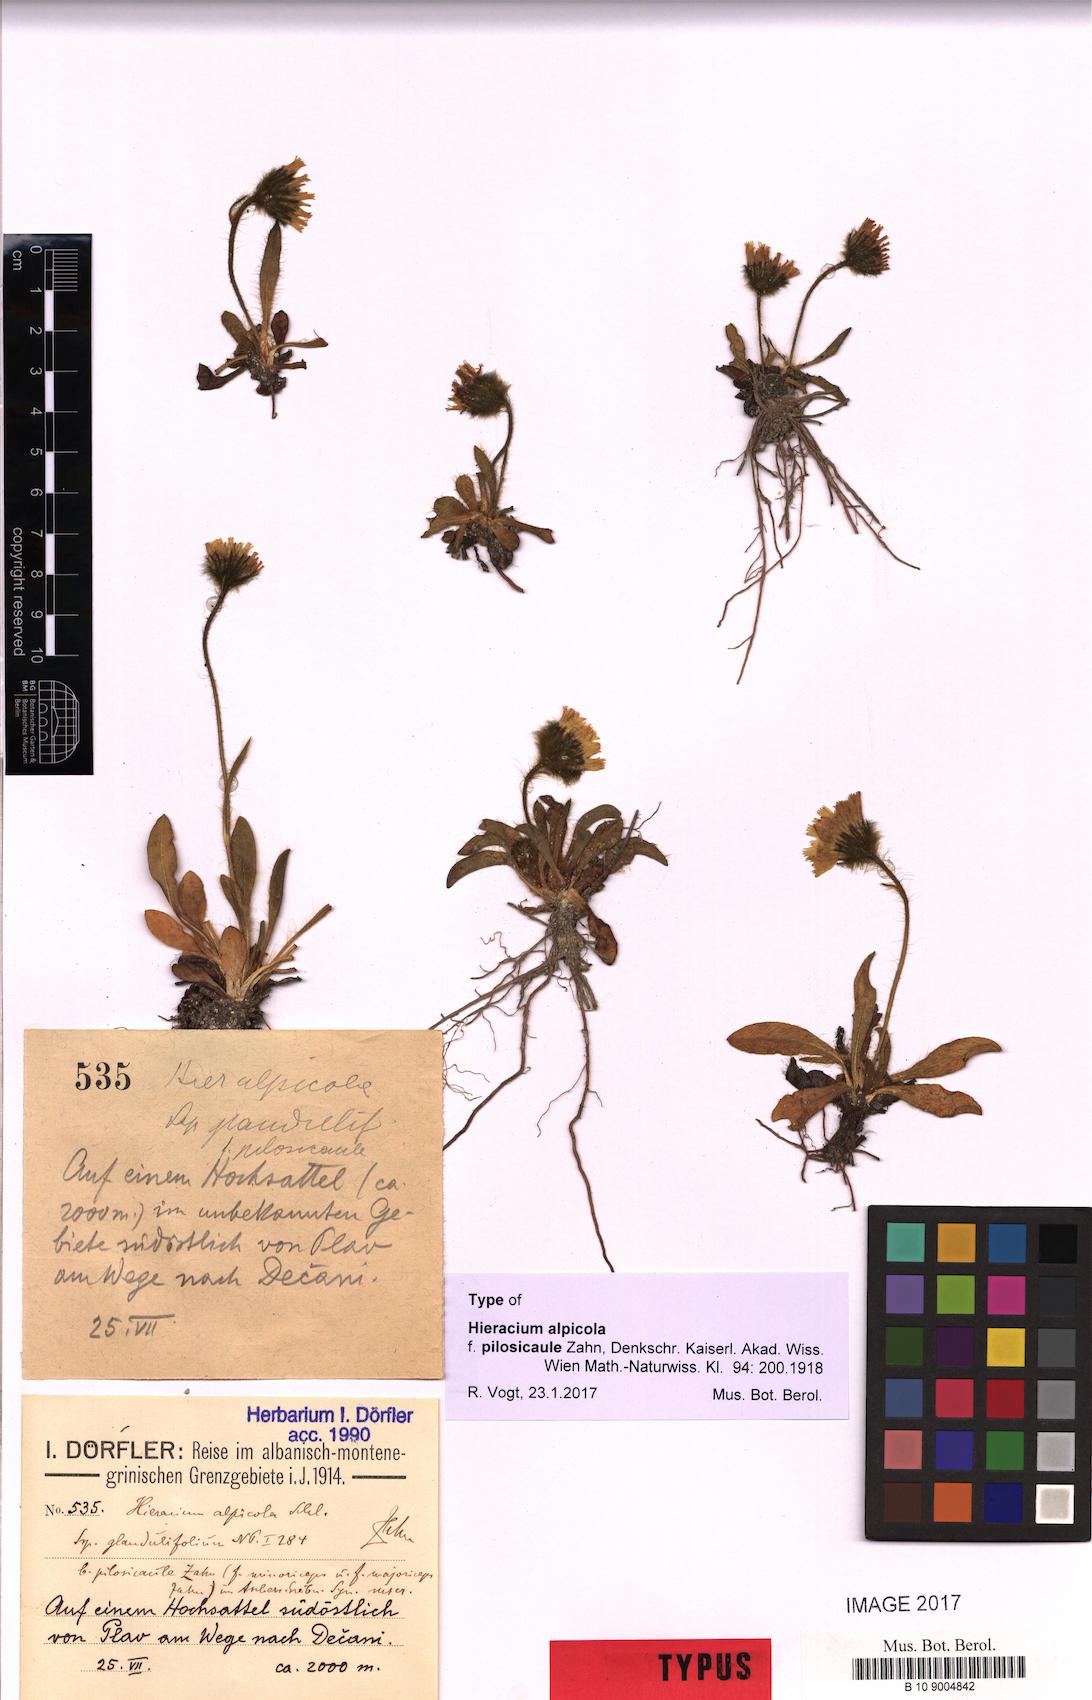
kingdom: Plantae
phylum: Tracheophyta
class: Magnoliopsida
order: Asterales
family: Asteraceae
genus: Pilosella
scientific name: Pilosella serbica
